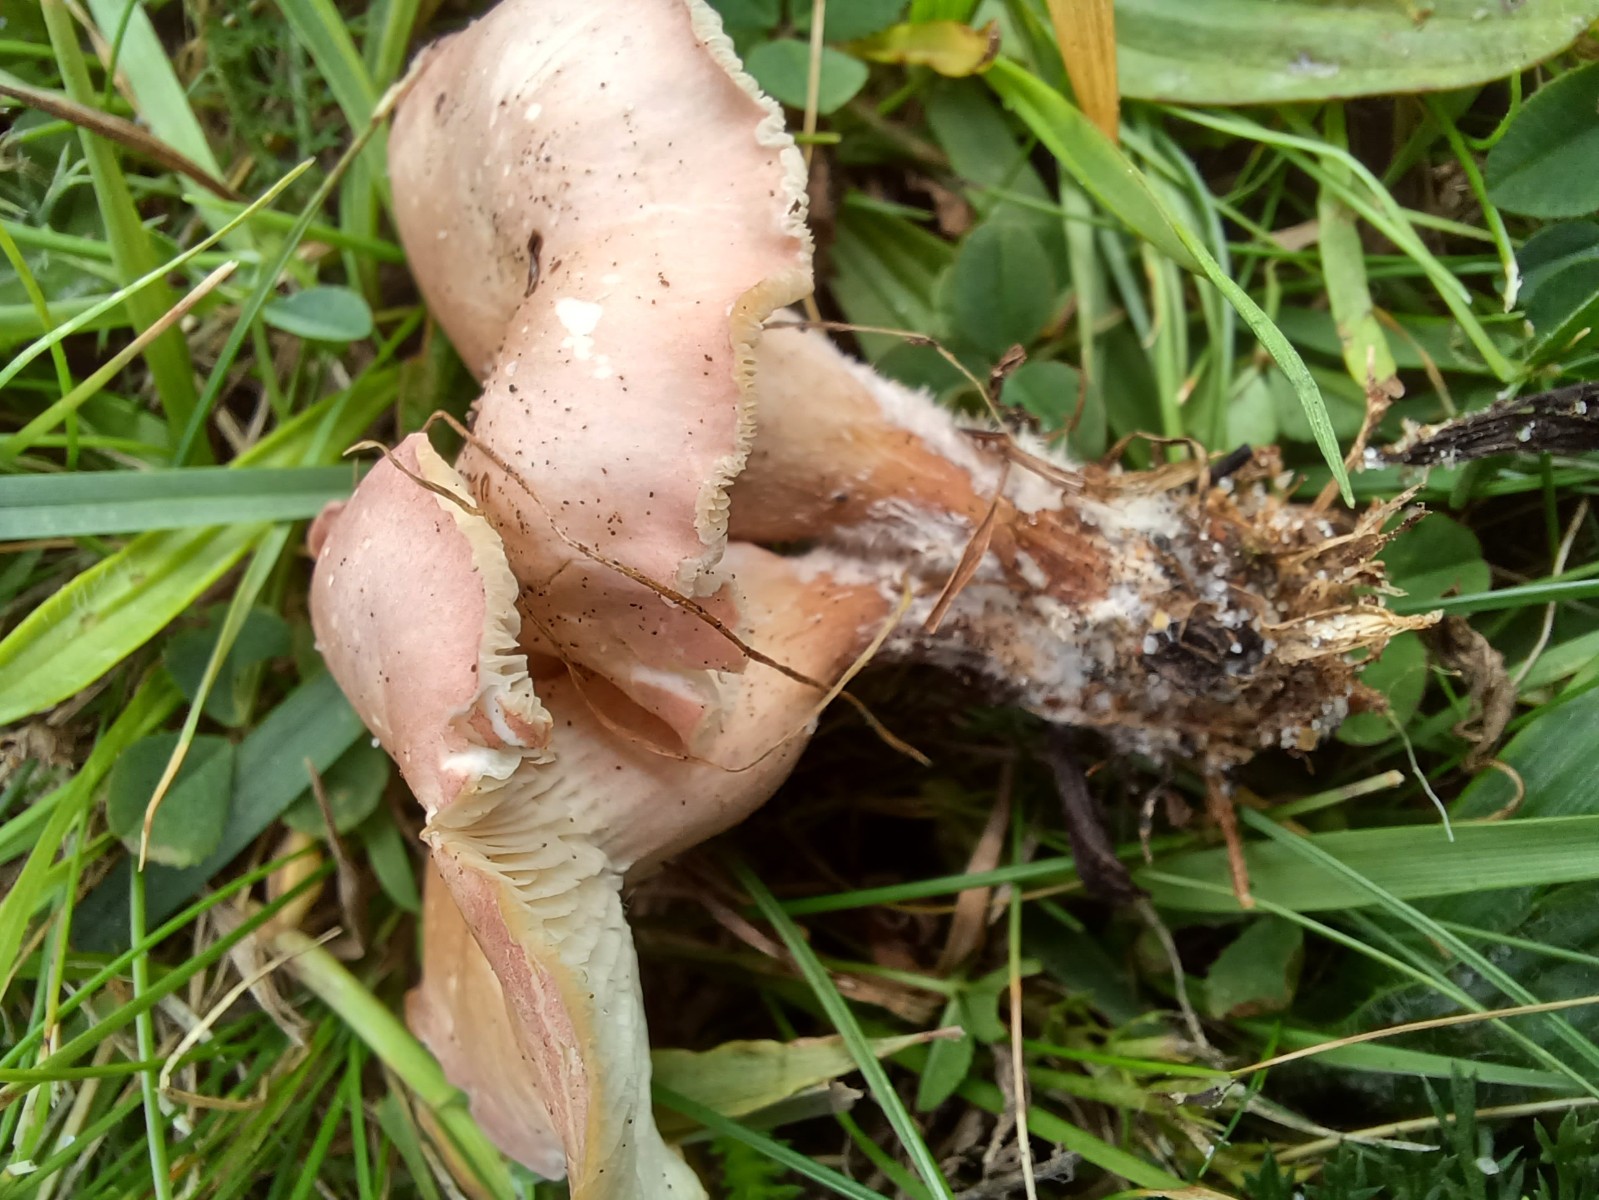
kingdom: Fungi
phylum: Basidiomycota
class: Agaricomycetes
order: Agaricales
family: Lyophyllaceae
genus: Calocybe
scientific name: Calocybe carnea
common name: rosa fagerhat
